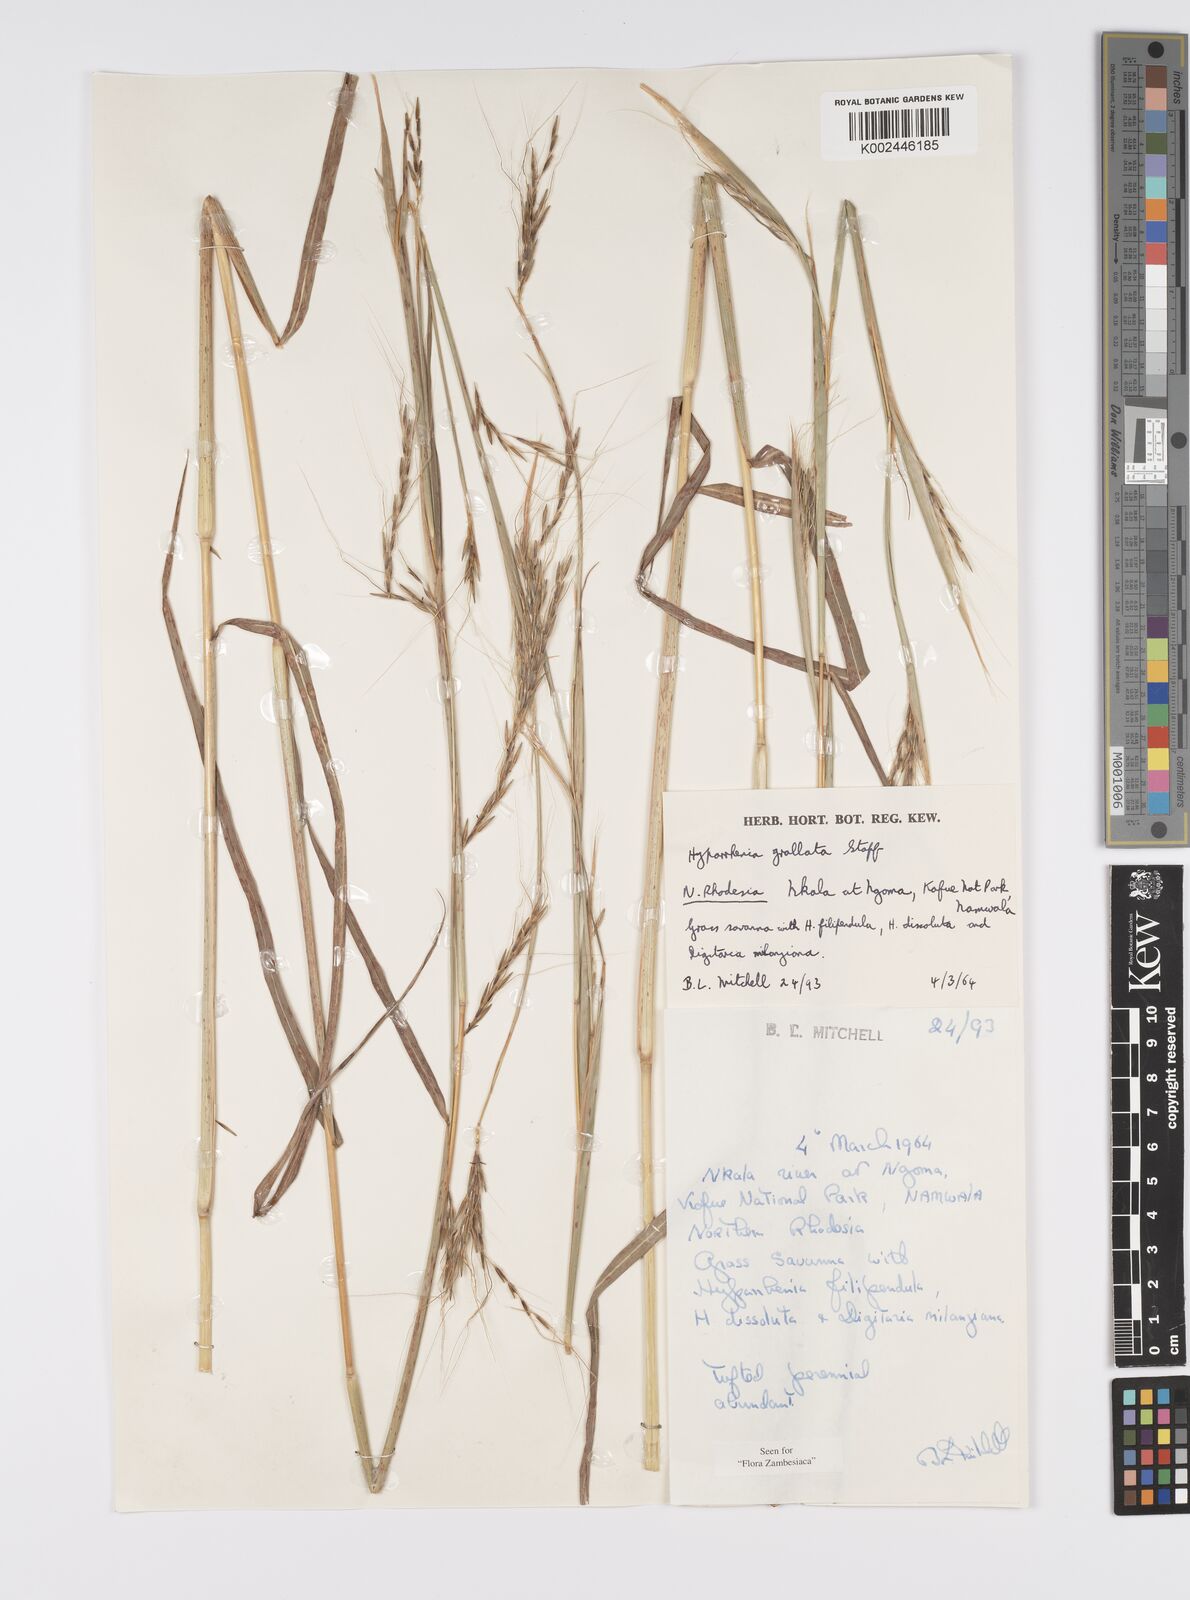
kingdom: Plantae
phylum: Tracheophyta
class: Liliopsida
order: Poales
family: Poaceae
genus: Elymandra
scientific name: Elymandra grallata
